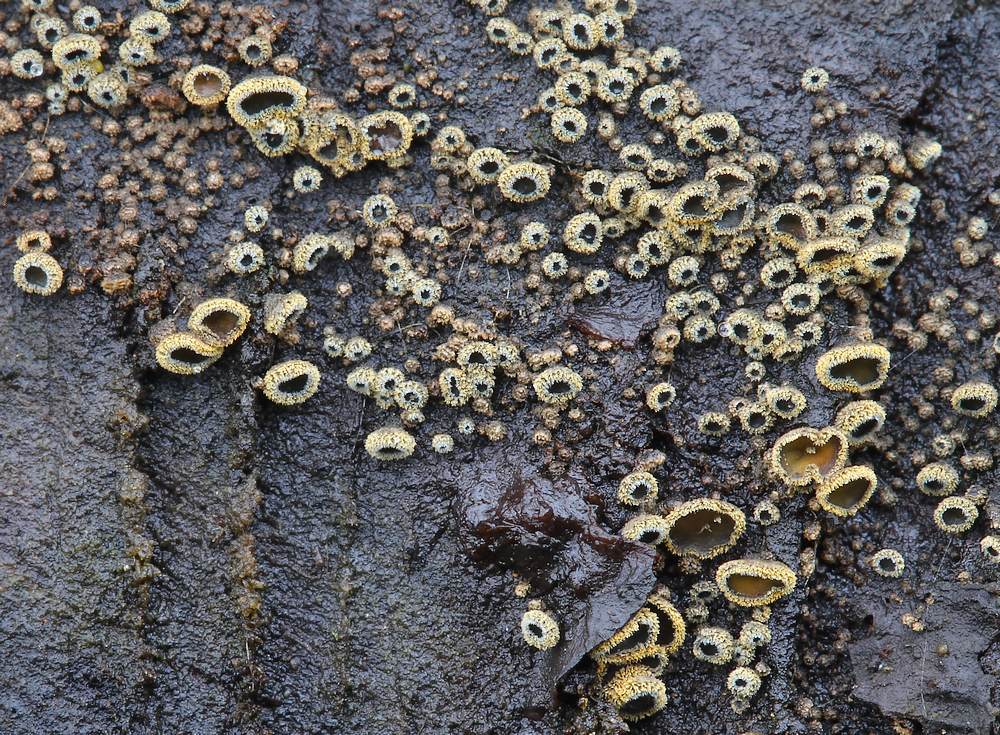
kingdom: Fungi
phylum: Ascomycota
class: Leotiomycetes
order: Helotiales
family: Lachnaceae
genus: Neodasyscypha
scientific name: Neodasyscypha cerina
